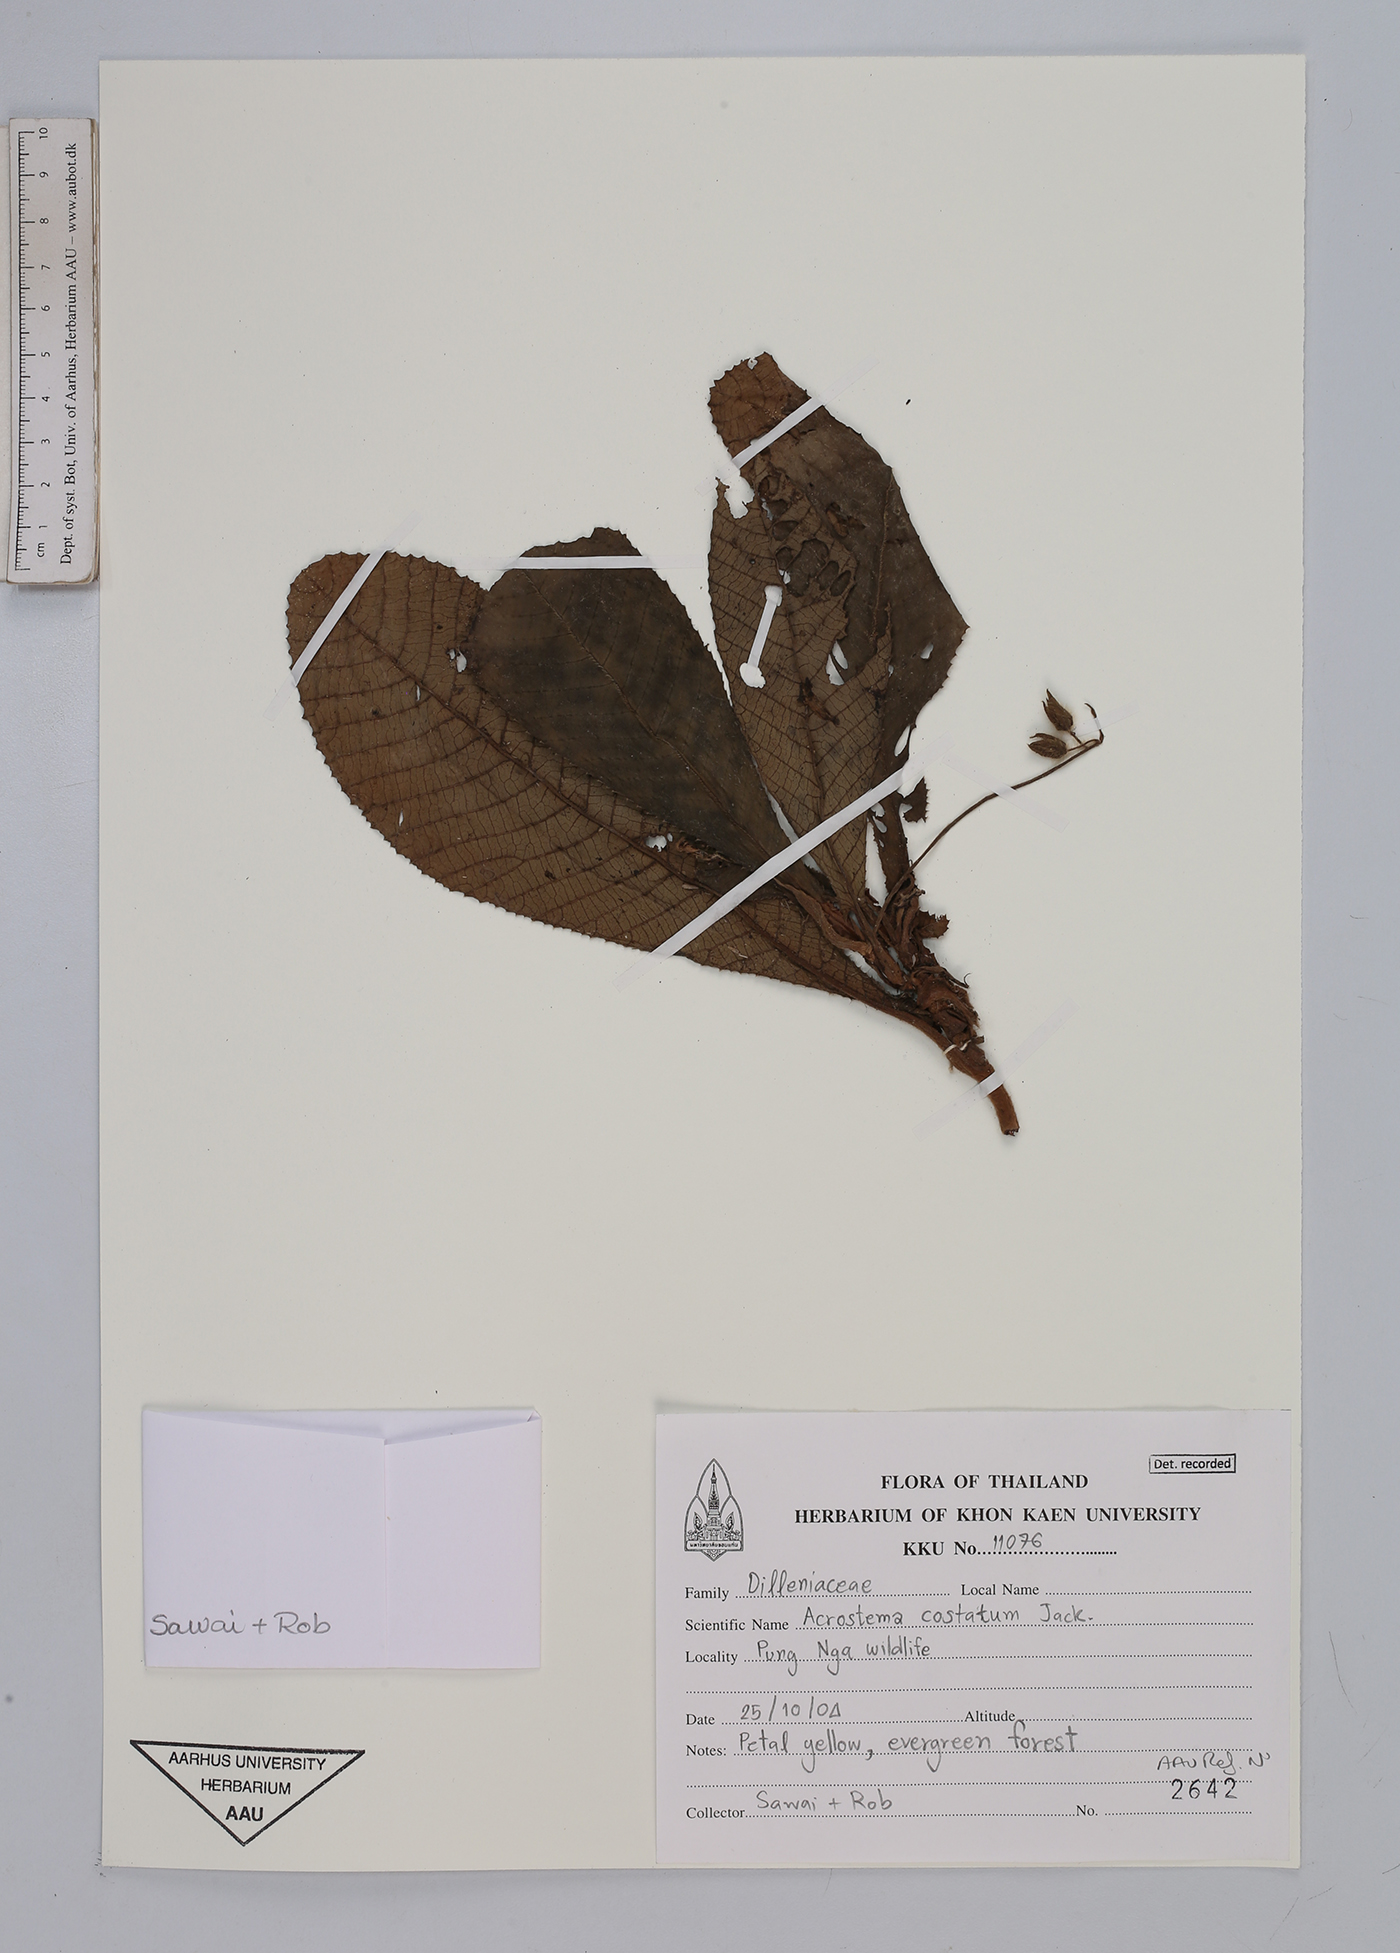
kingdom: Plantae
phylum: Tracheophyta
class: Magnoliopsida
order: Dilleniales
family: Dilleniaceae
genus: Acrotrema
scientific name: Acrotrema costatum
